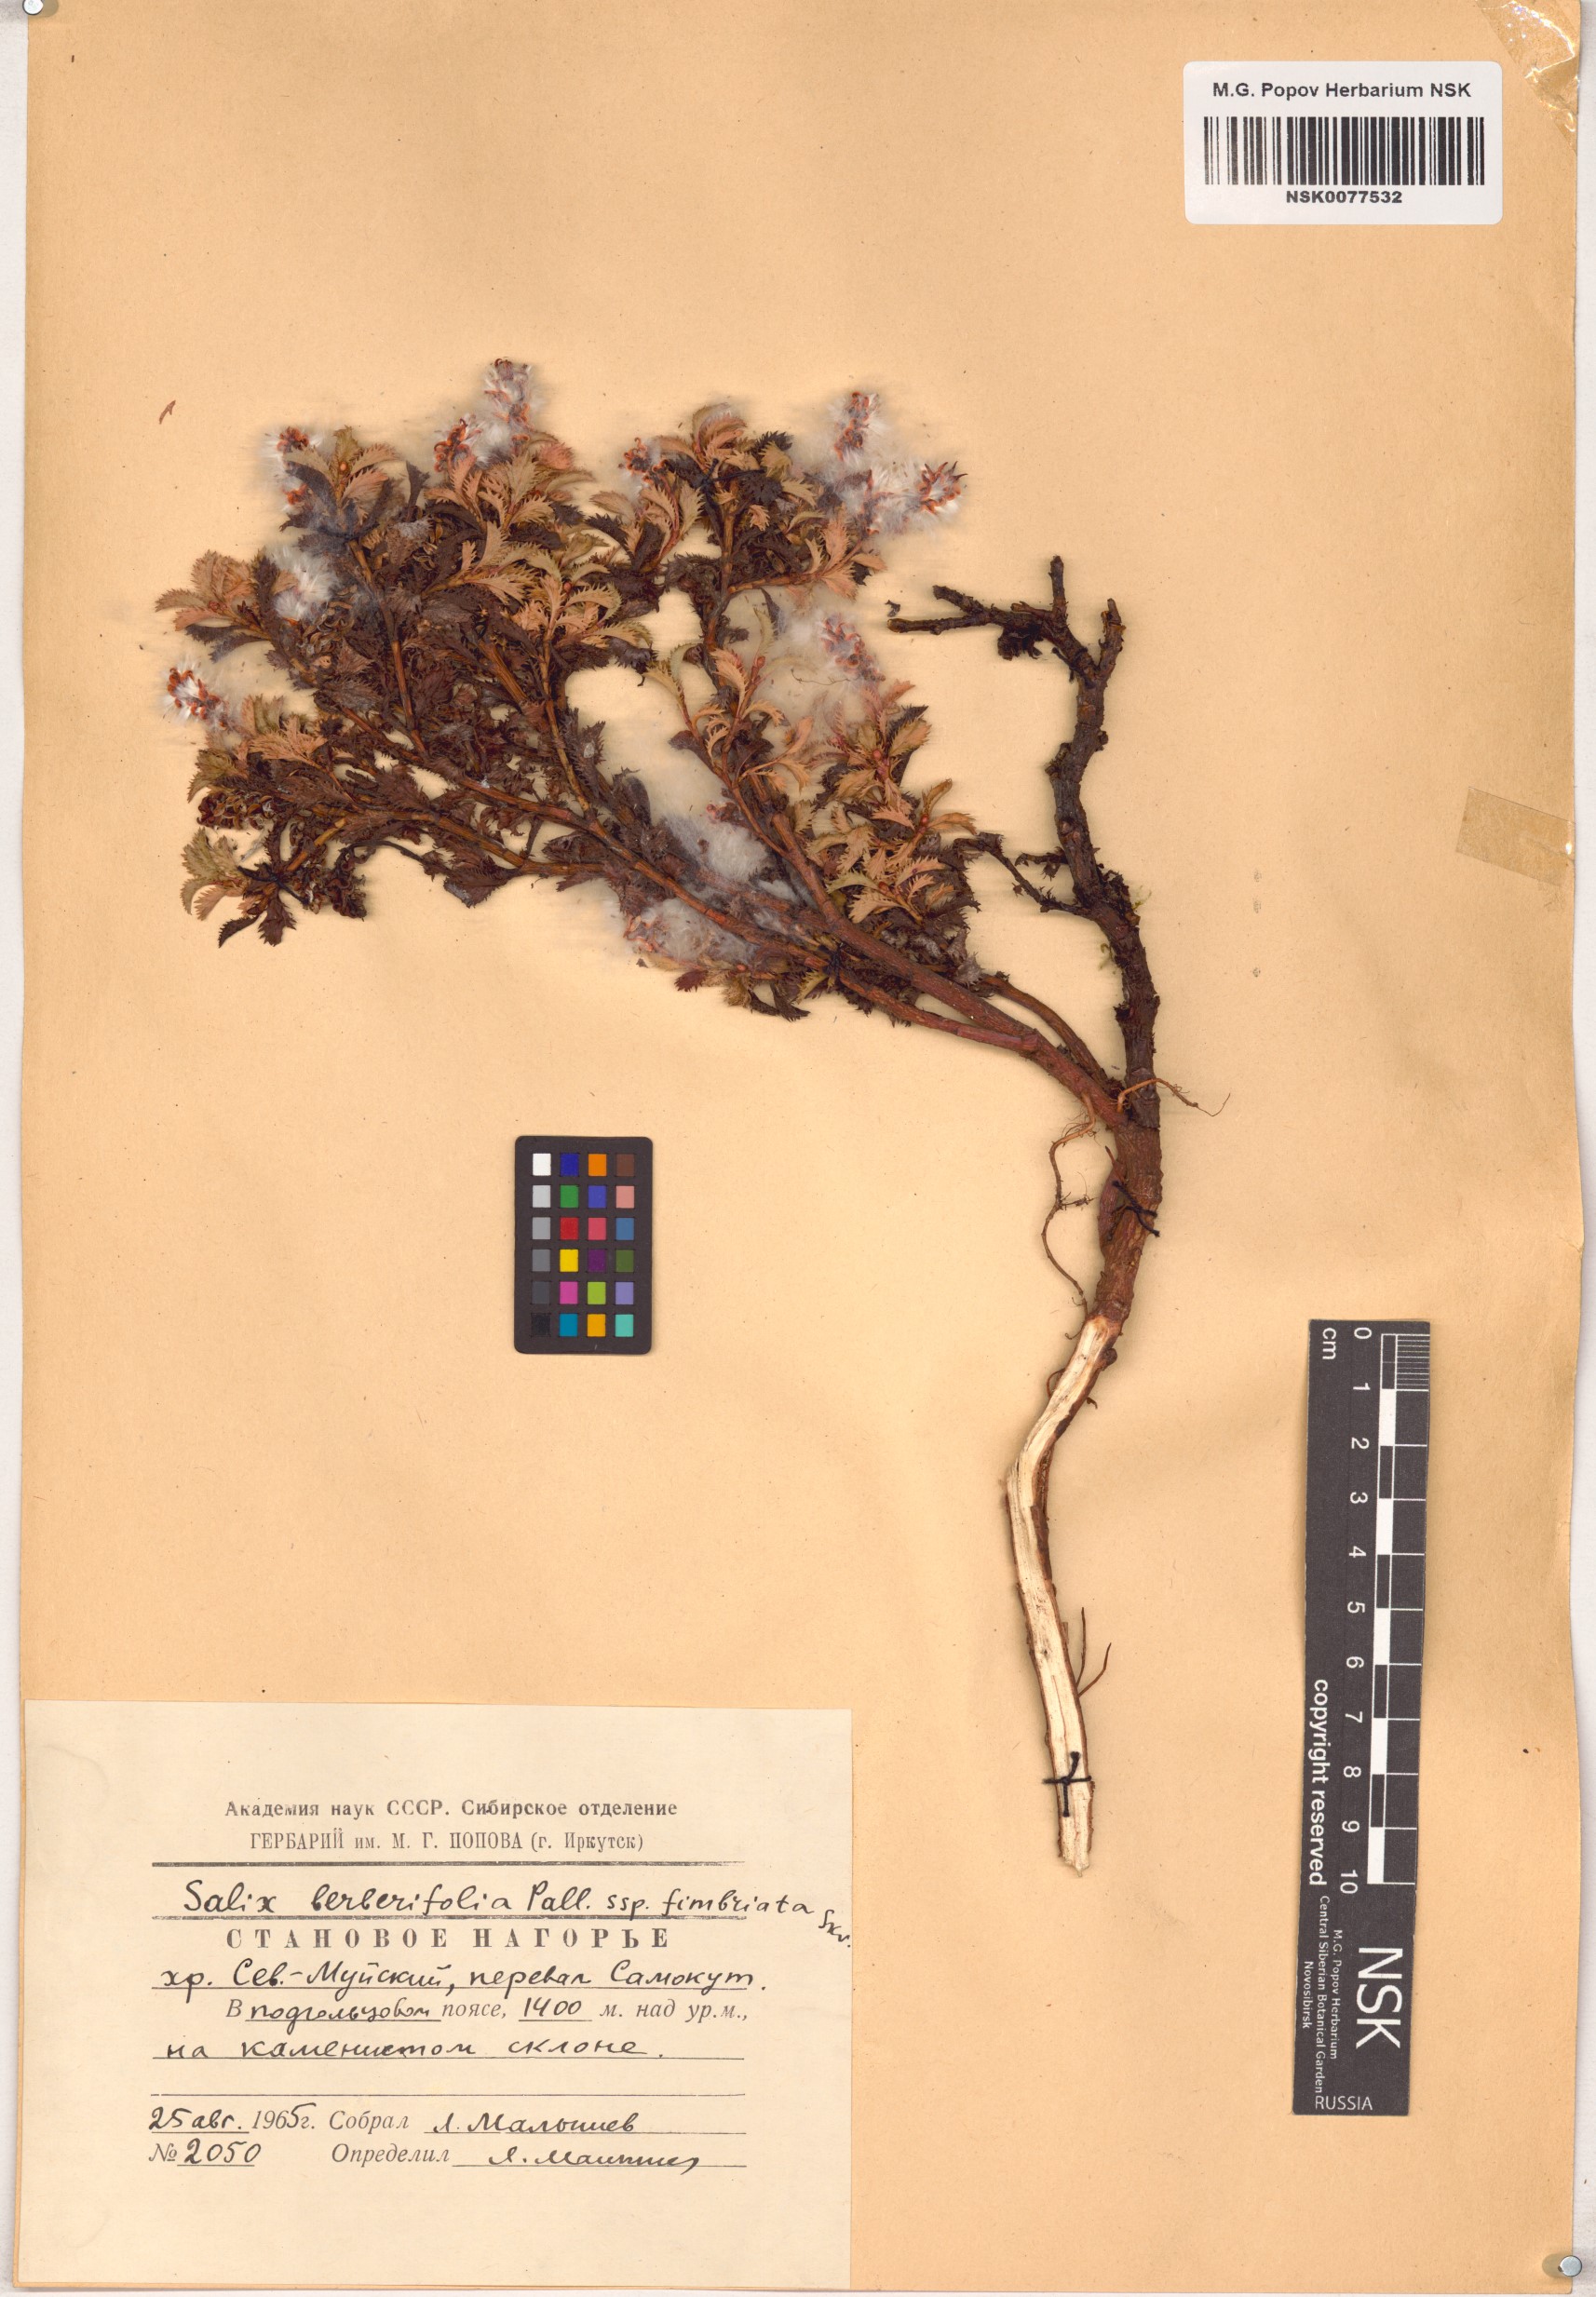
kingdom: Plantae
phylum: Tracheophyta
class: Magnoliopsida
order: Malpighiales
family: Salicaceae
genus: Salix
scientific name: Salix berberifolia
